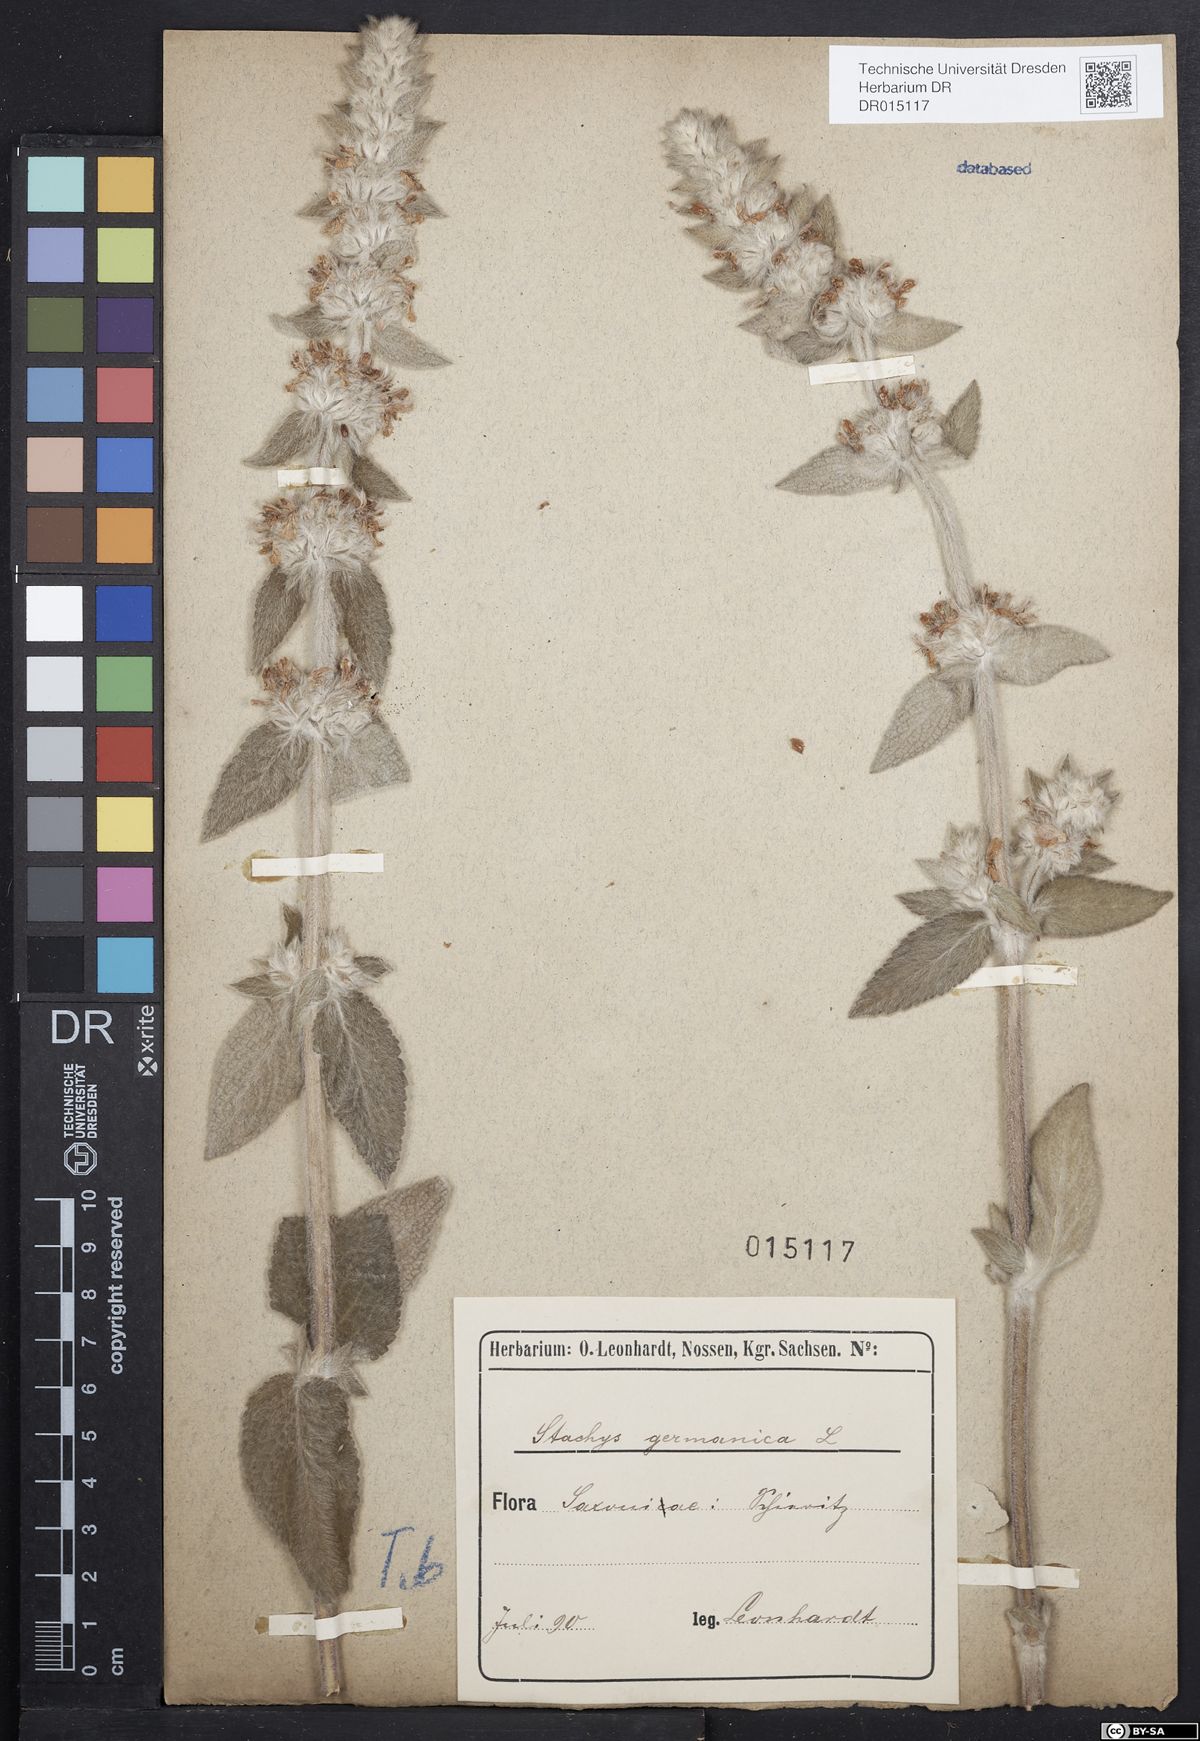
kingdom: Plantae
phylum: Tracheophyta
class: Magnoliopsida
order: Lamiales
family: Lamiaceae
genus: Stachys
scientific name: Stachys germanica
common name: Downy woundwort
